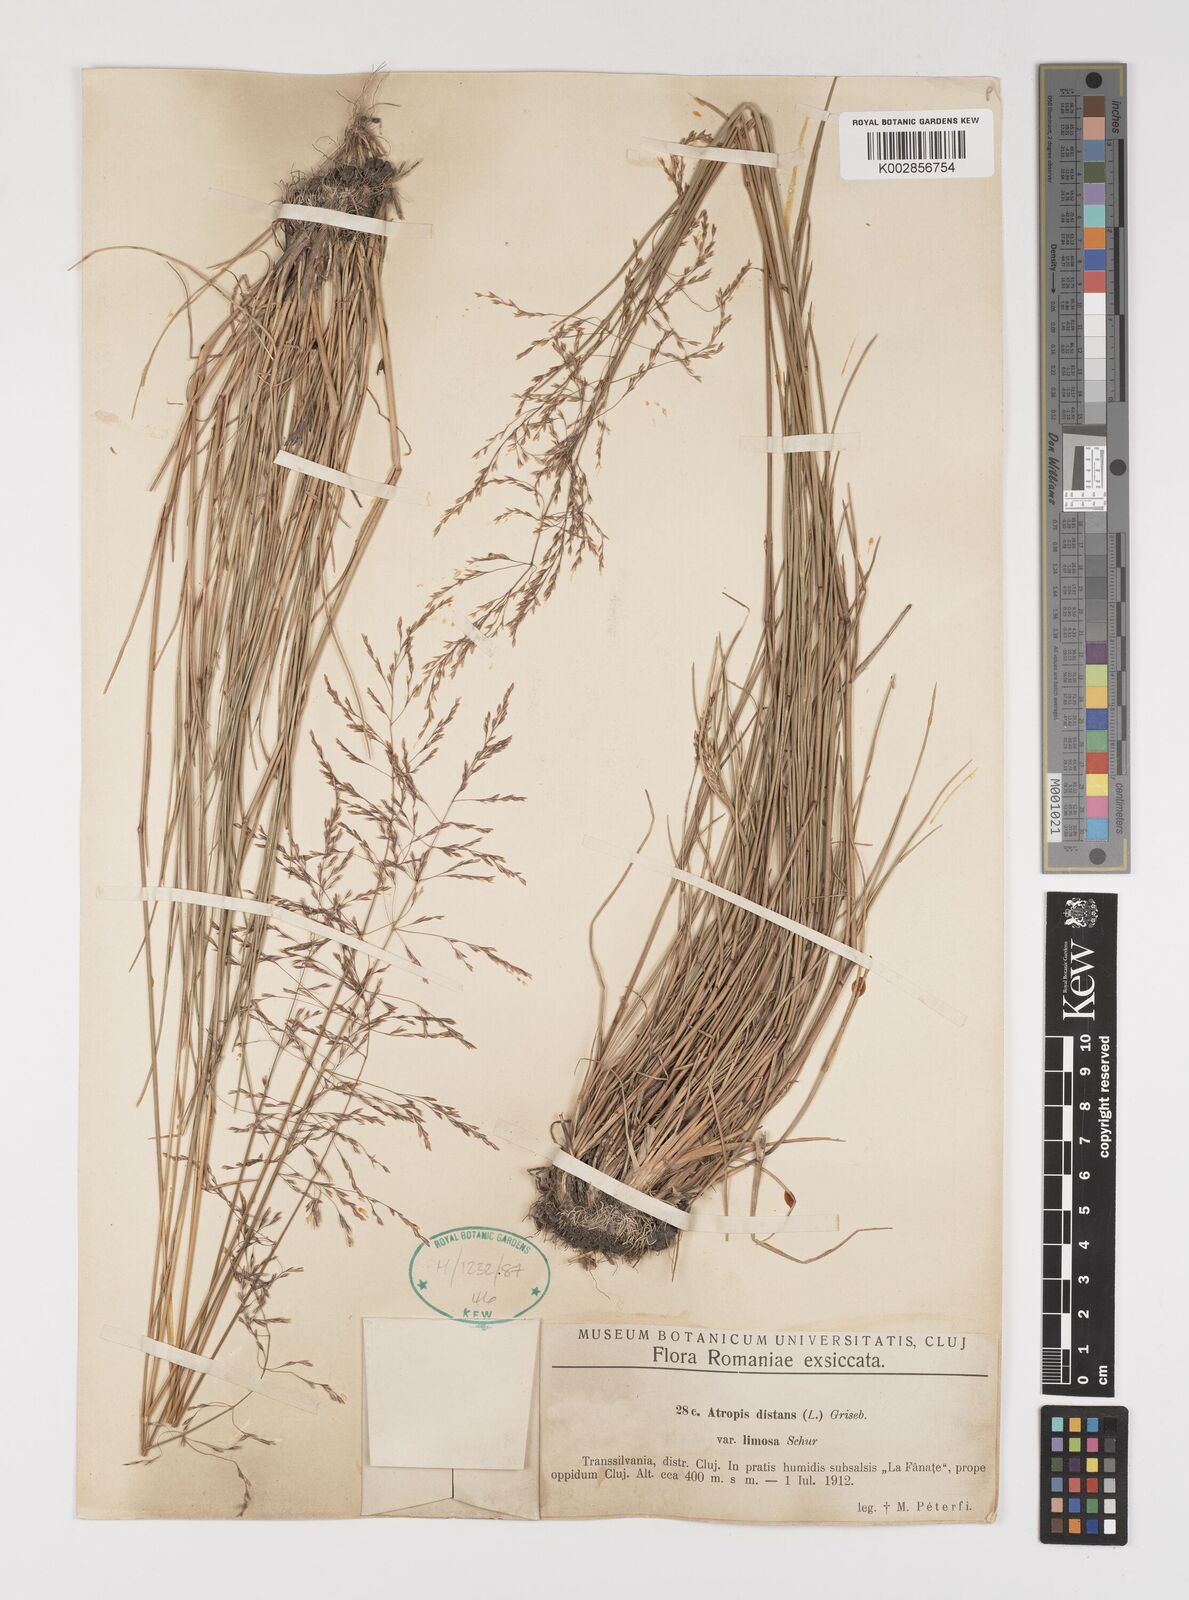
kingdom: Plantae
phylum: Tracheophyta
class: Liliopsida
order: Poales
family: Poaceae
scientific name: Poaceae
